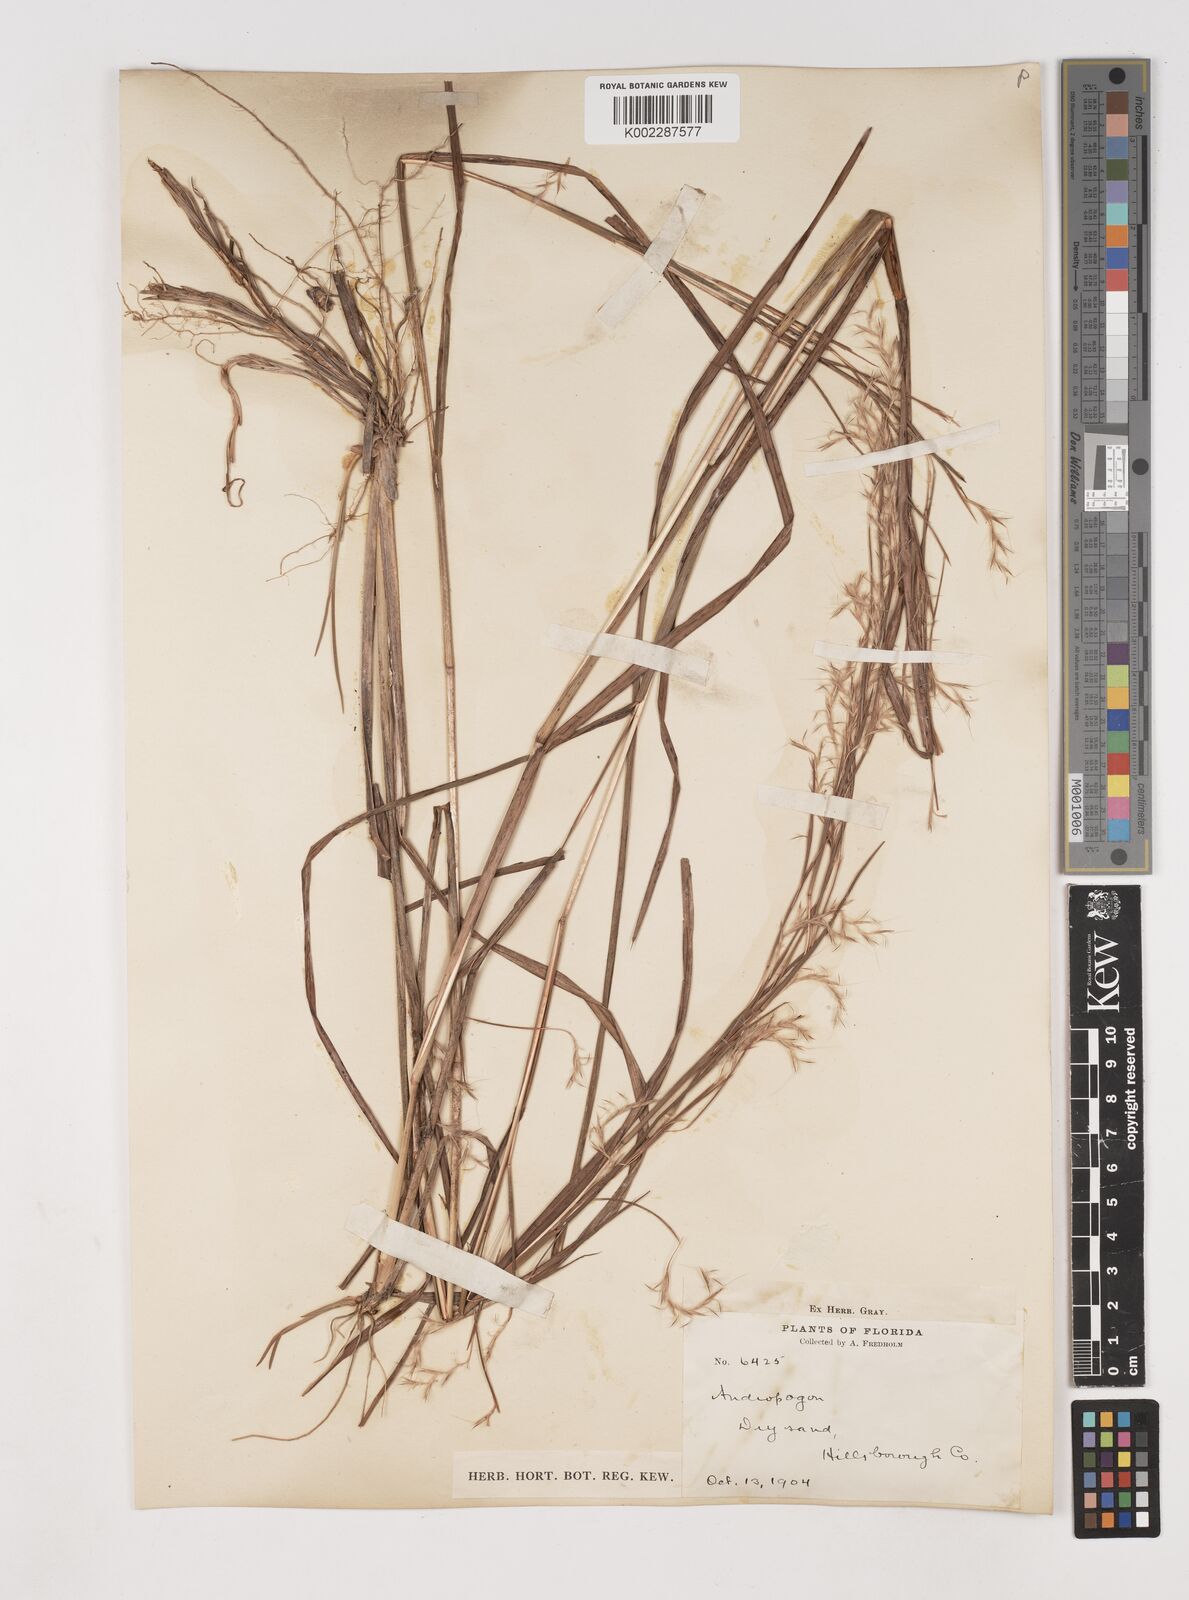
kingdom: Plantae
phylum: Tracheophyta
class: Liliopsida
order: Poales
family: Poaceae
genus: Schizachyrium
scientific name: Schizachyrium scoparium
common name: Little bluestem
